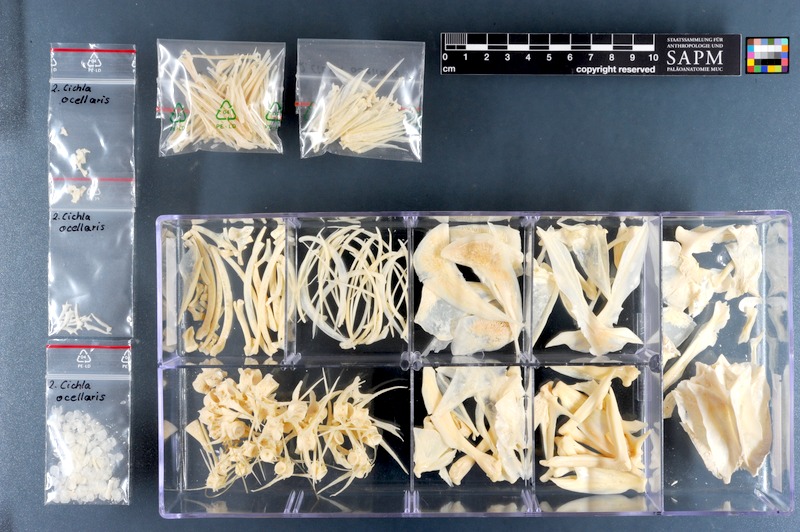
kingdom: Animalia
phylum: Chordata
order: Perciformes
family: Cichlidae
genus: Cichla
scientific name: Cichla ocellaris
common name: Peacock cichlid
